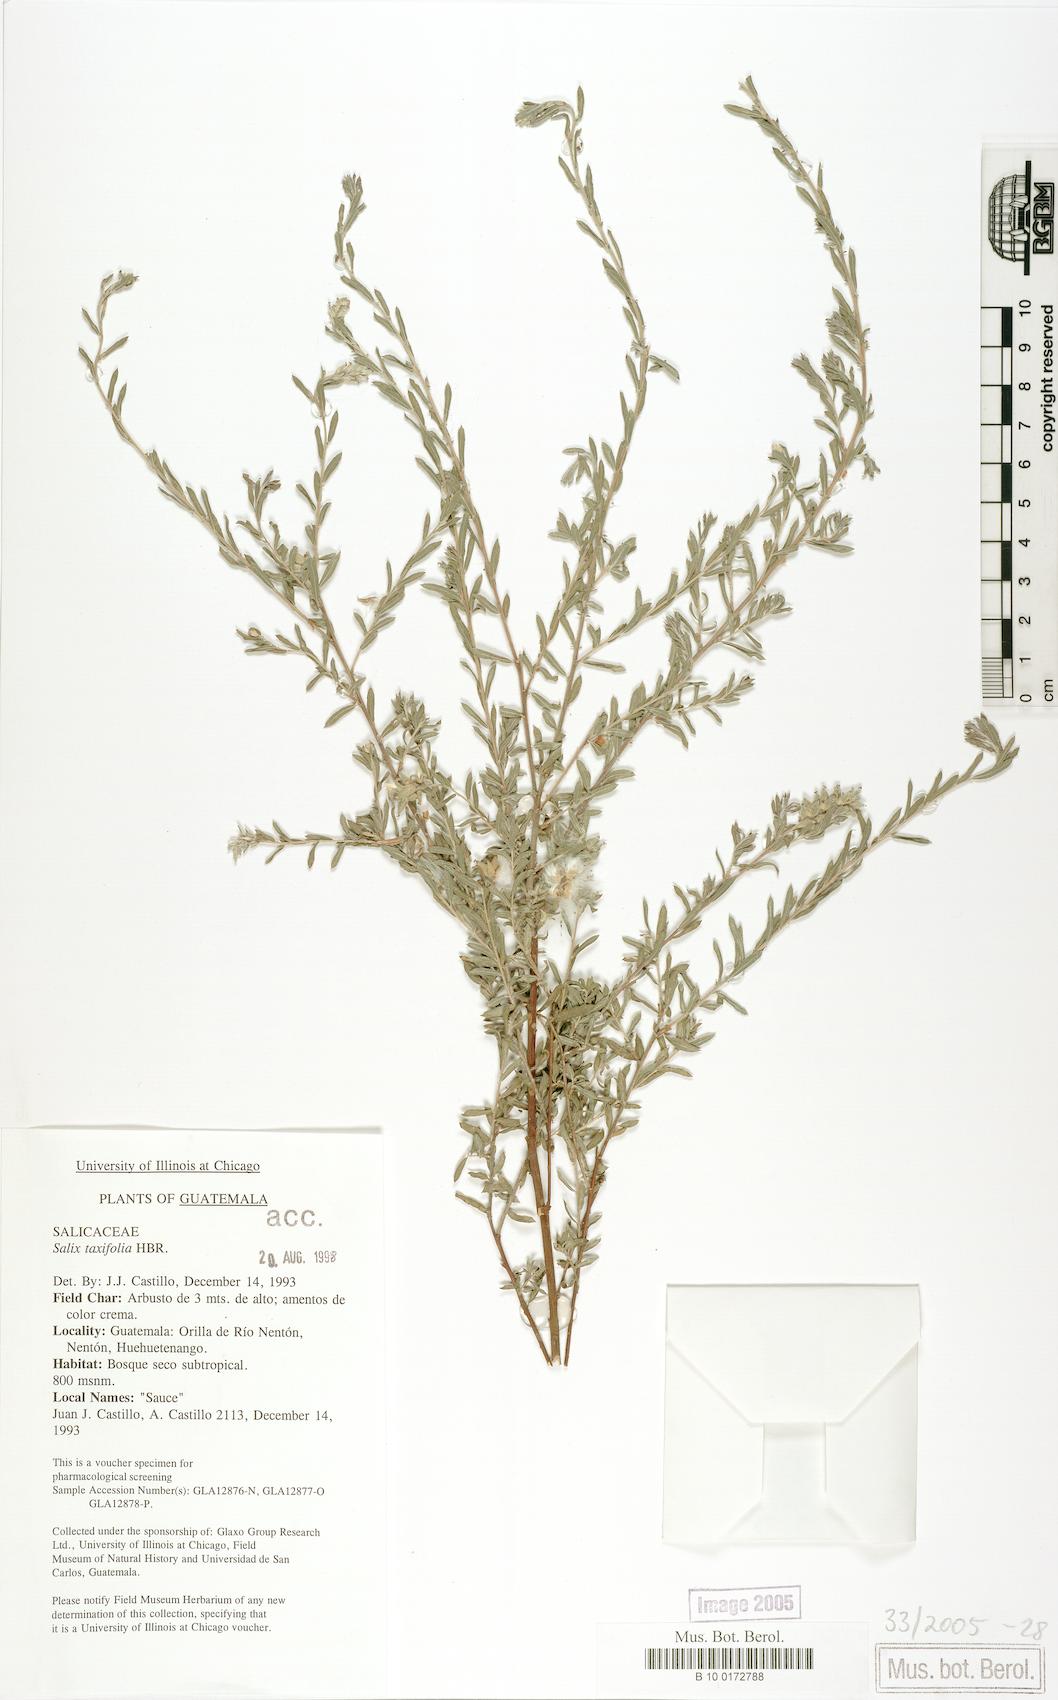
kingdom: Plantae
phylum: Tracheophyta
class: Magnoliopsida
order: Malpighiales
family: Salicaceae
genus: Salix
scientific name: Salix taxifolia
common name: Yew-leaf willow
